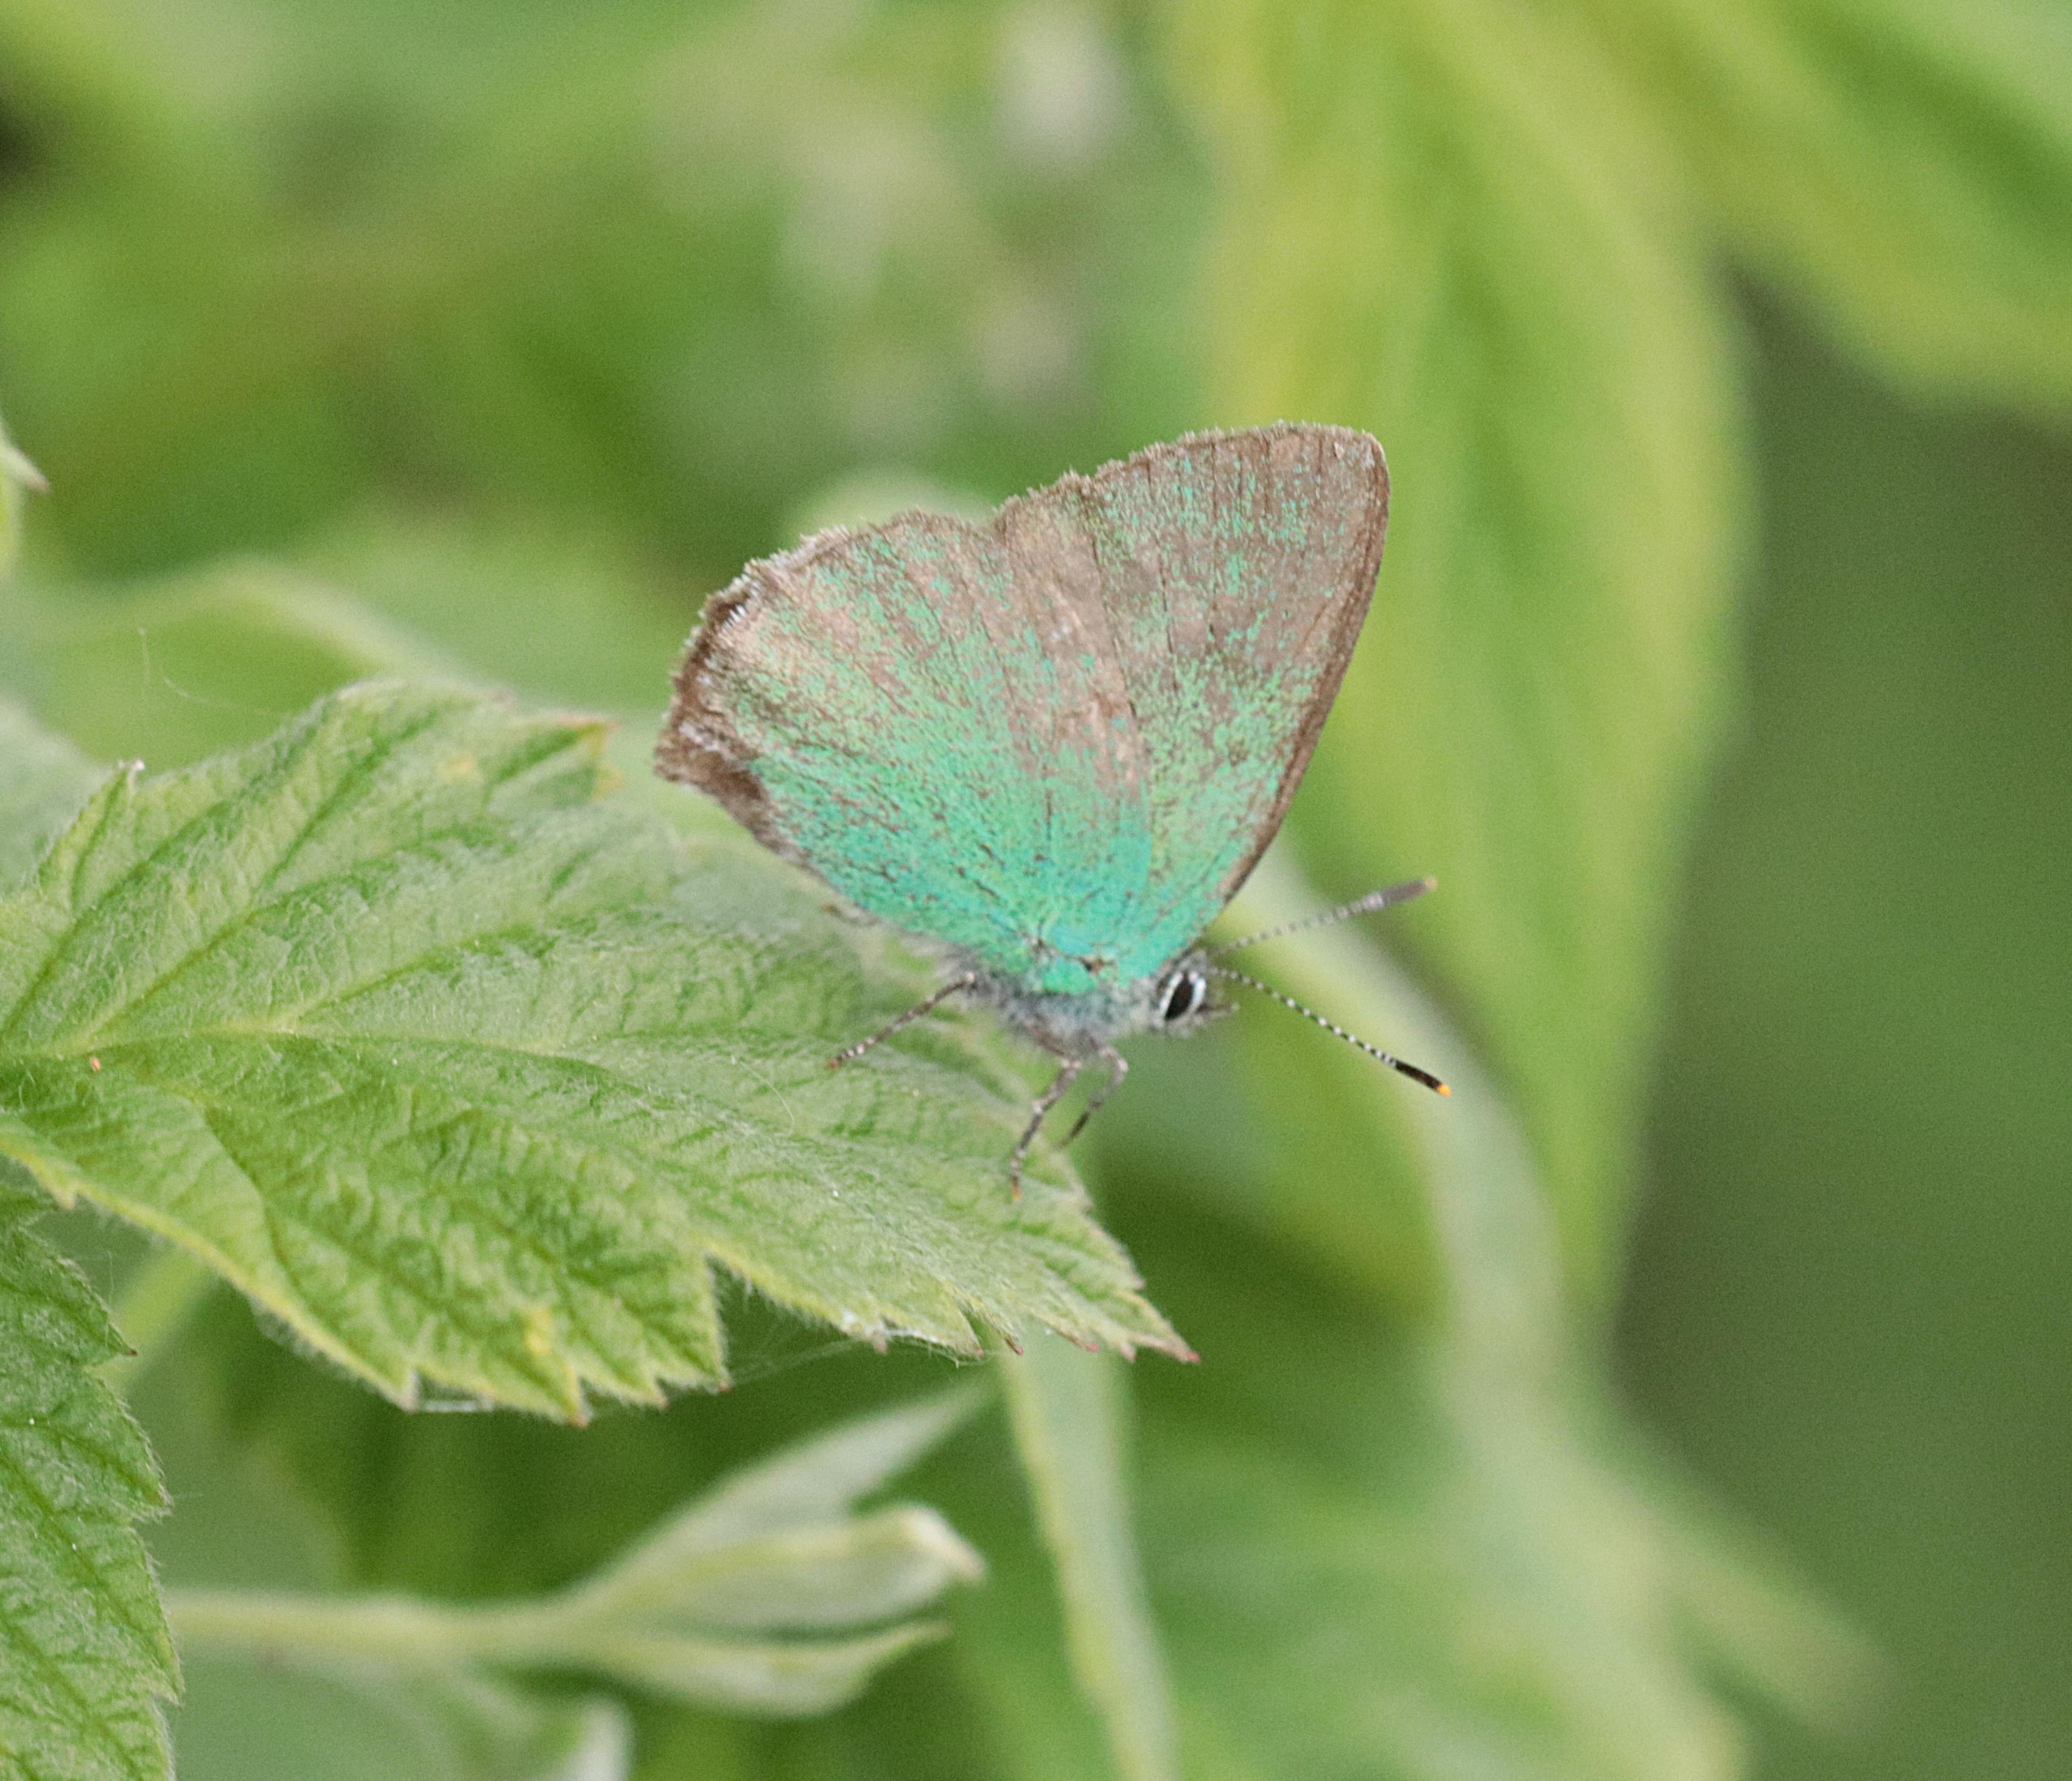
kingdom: Animalia
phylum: Arthropoda
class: Insecta
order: Lepidoptera
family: Lycaenidae
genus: Callophrys
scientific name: Callophrys rubi
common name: Grøn busksommerfugl
